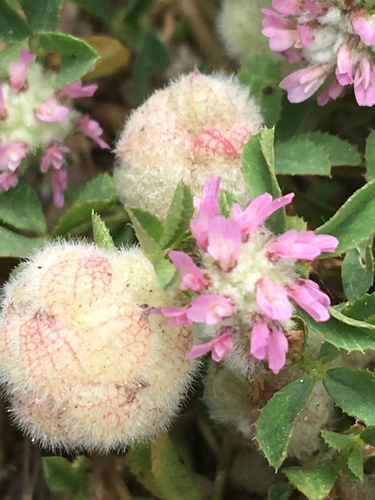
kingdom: Plantae
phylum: Tracheophyta
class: Magnoliopsida
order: Fabales
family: Fabaceae
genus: Trifolium
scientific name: Trifolium tomentosum
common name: Woolly clover
